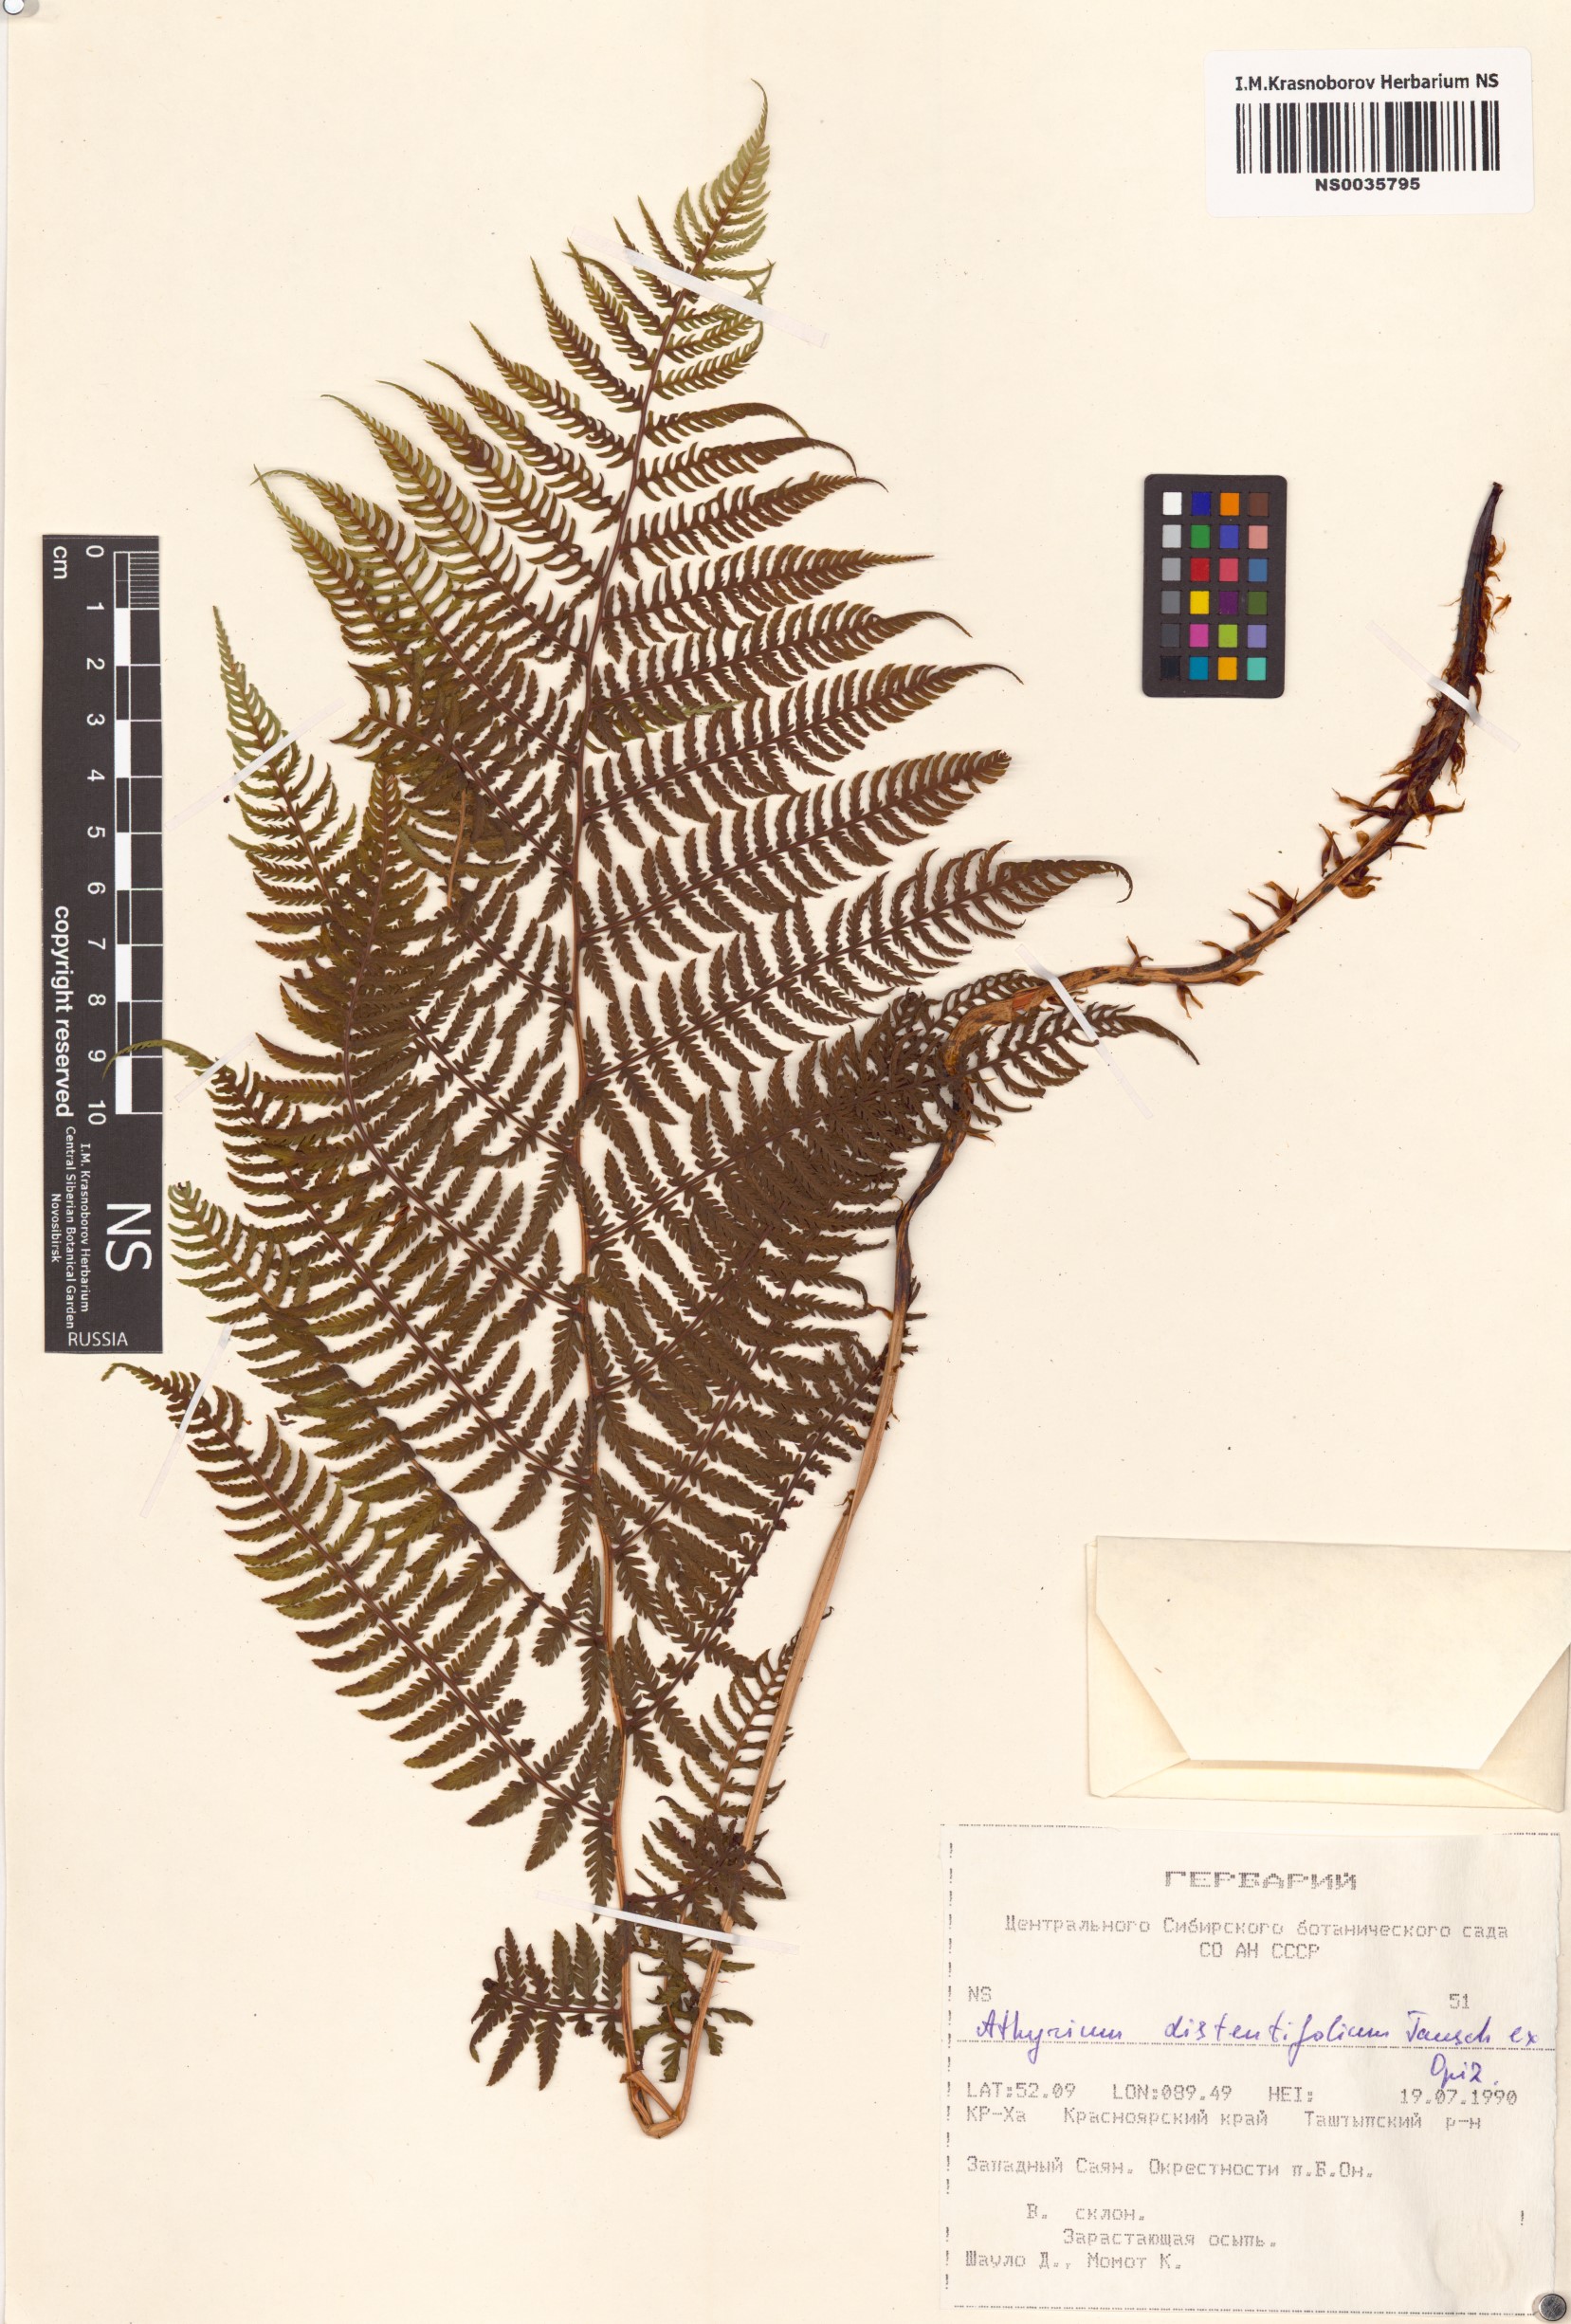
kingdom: Plantae
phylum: Tracheophyta
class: Polypodiopsida
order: Polypodiales
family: Athyriaceae
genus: Pseudathyrium
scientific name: Pseudathyrium alpestre
